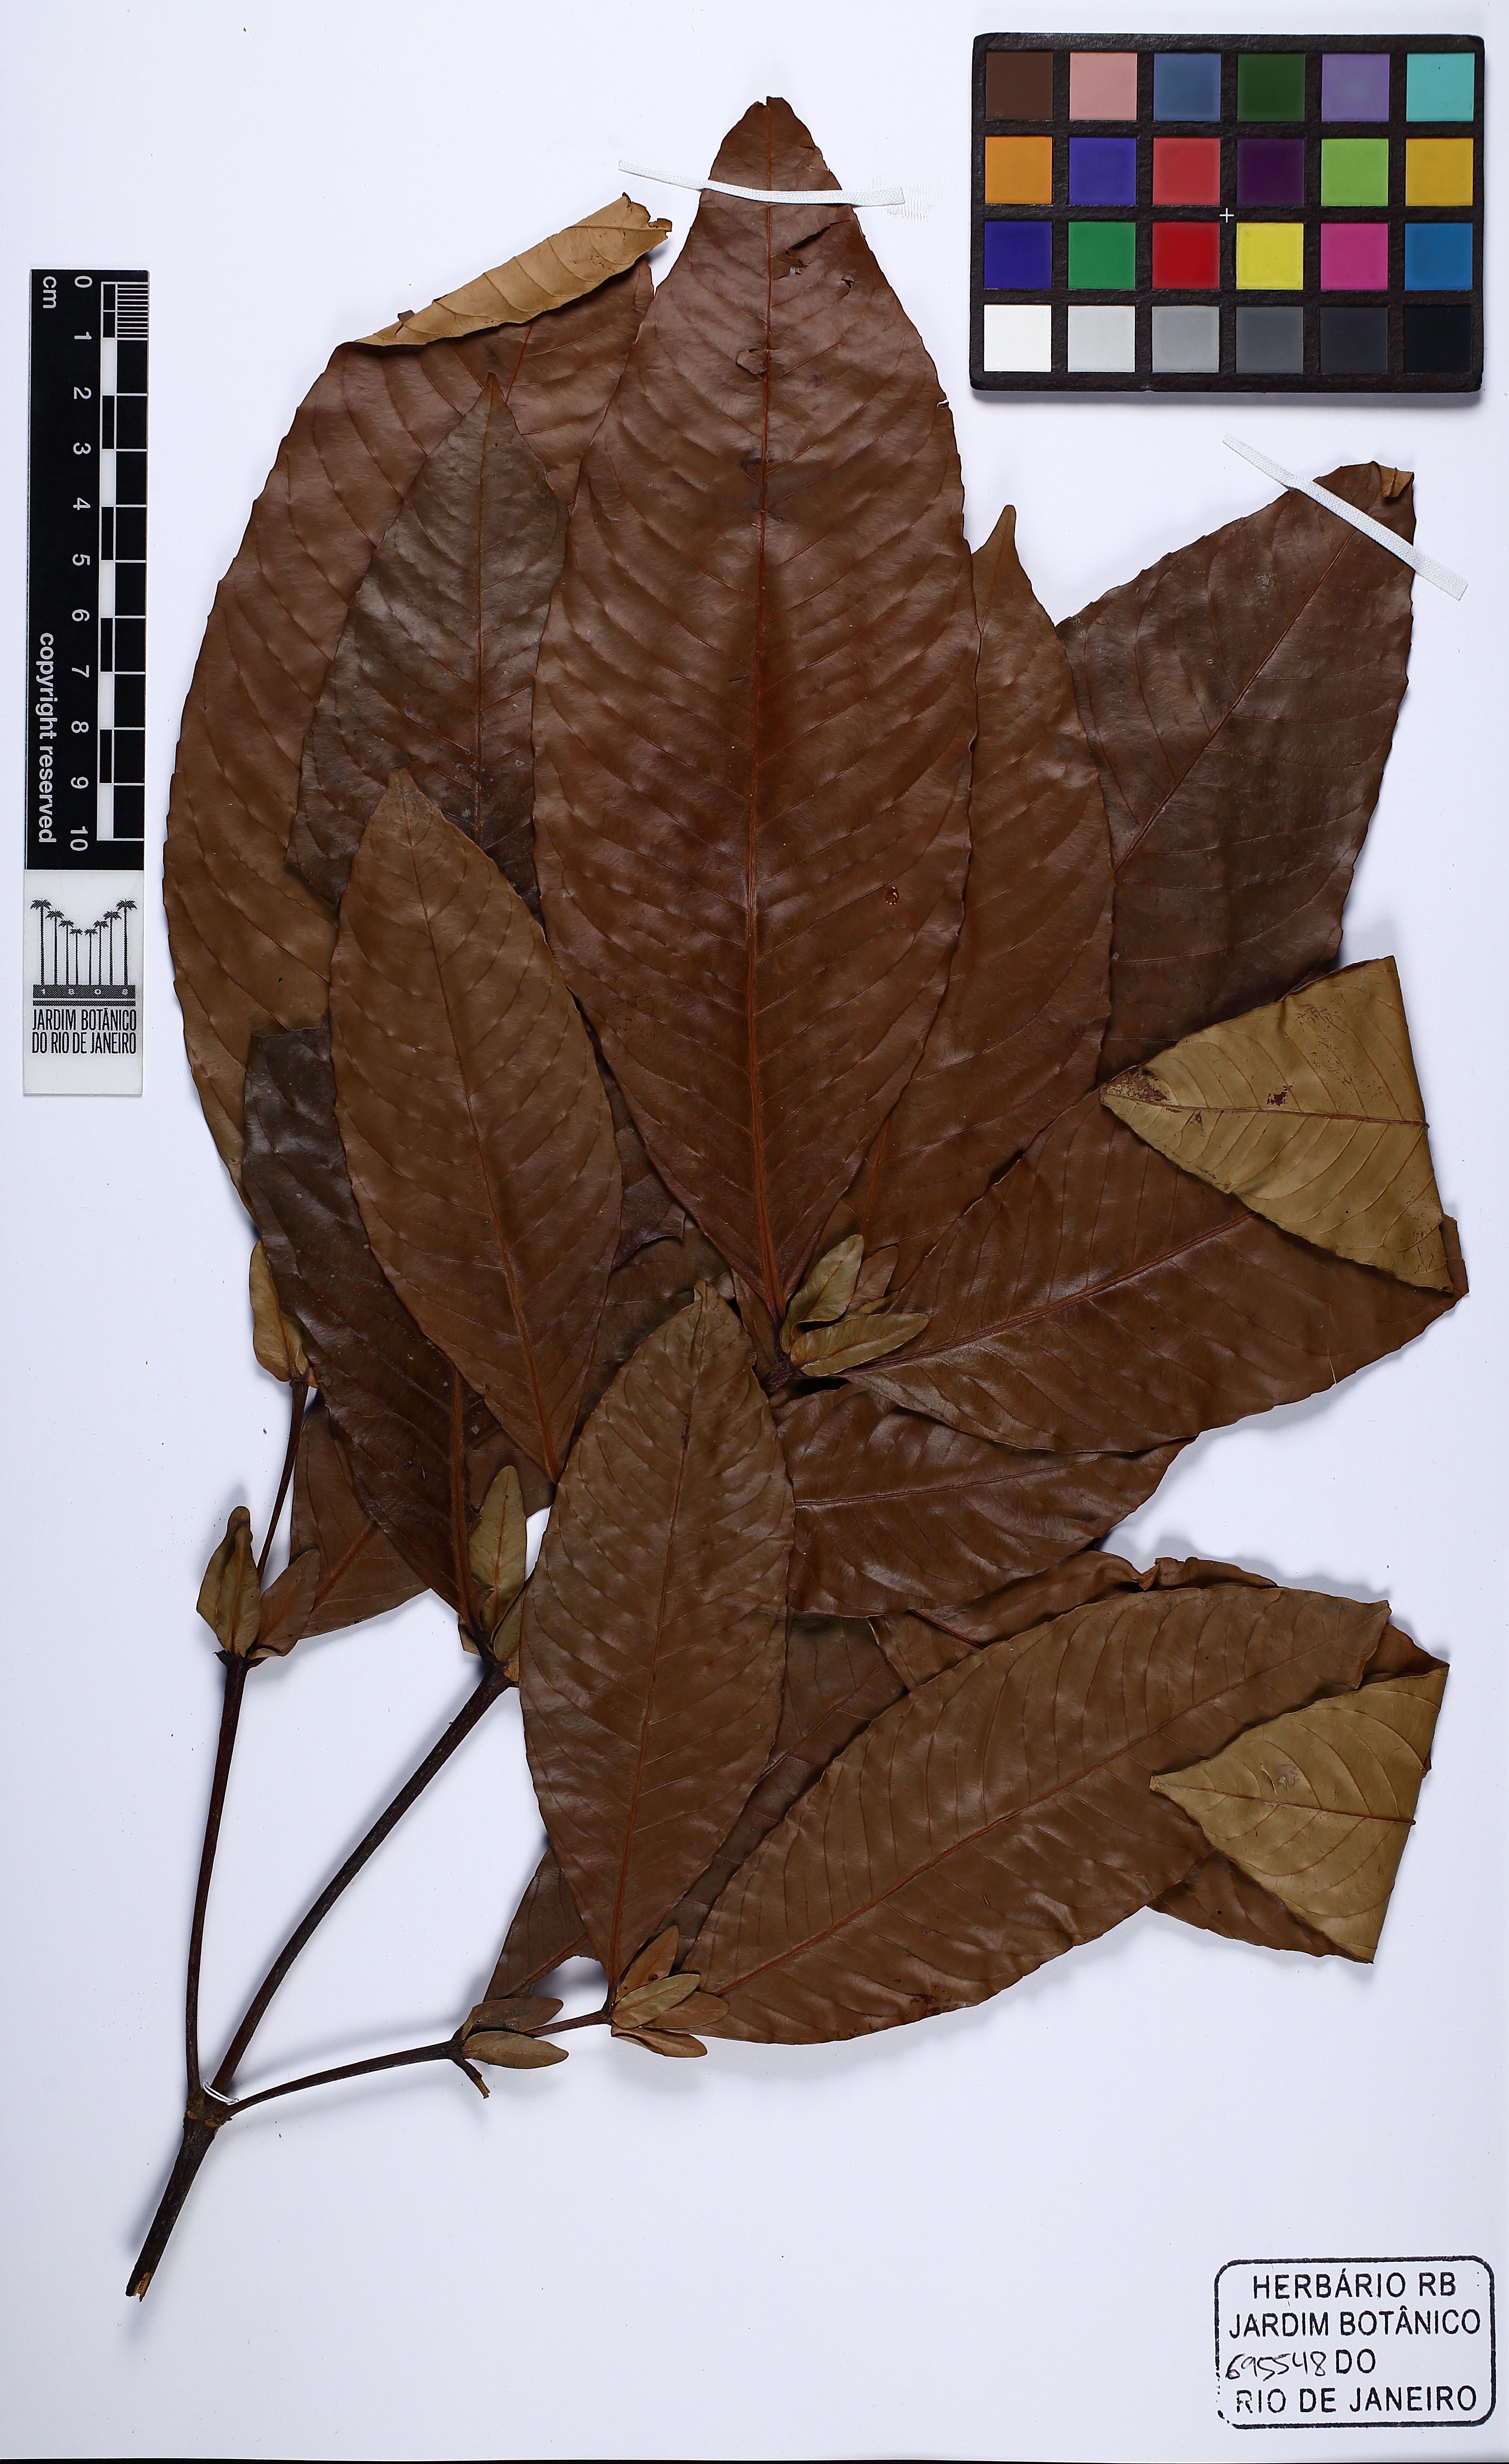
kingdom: Plantae
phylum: Tracheophyta
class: Magnoliopsida
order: Malpighiales
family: Quiinaceae
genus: Quiina
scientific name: Quiina glaziovii
